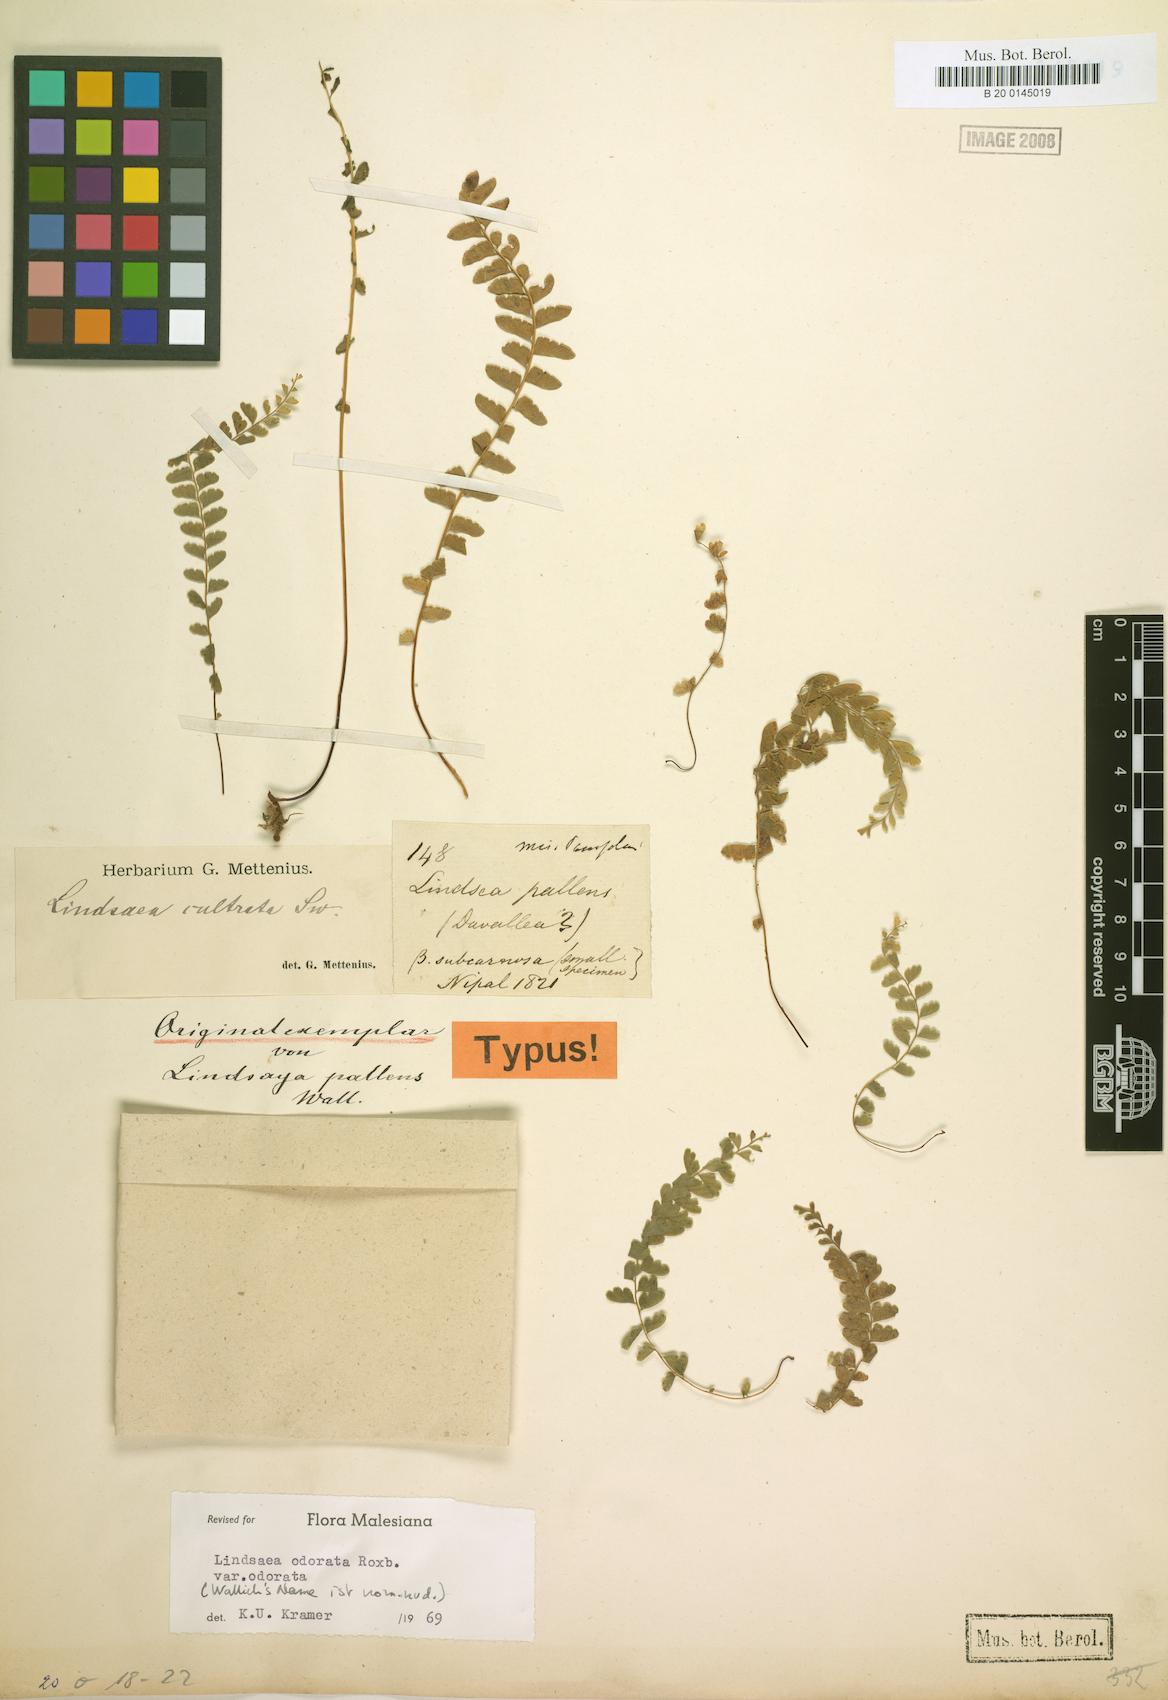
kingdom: Plantae
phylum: Tracheophyta
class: Polypodiopsida
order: Polypodiales
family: Lindsaeaceae
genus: Osmolindsaea
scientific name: Osmolindsaea odorata
